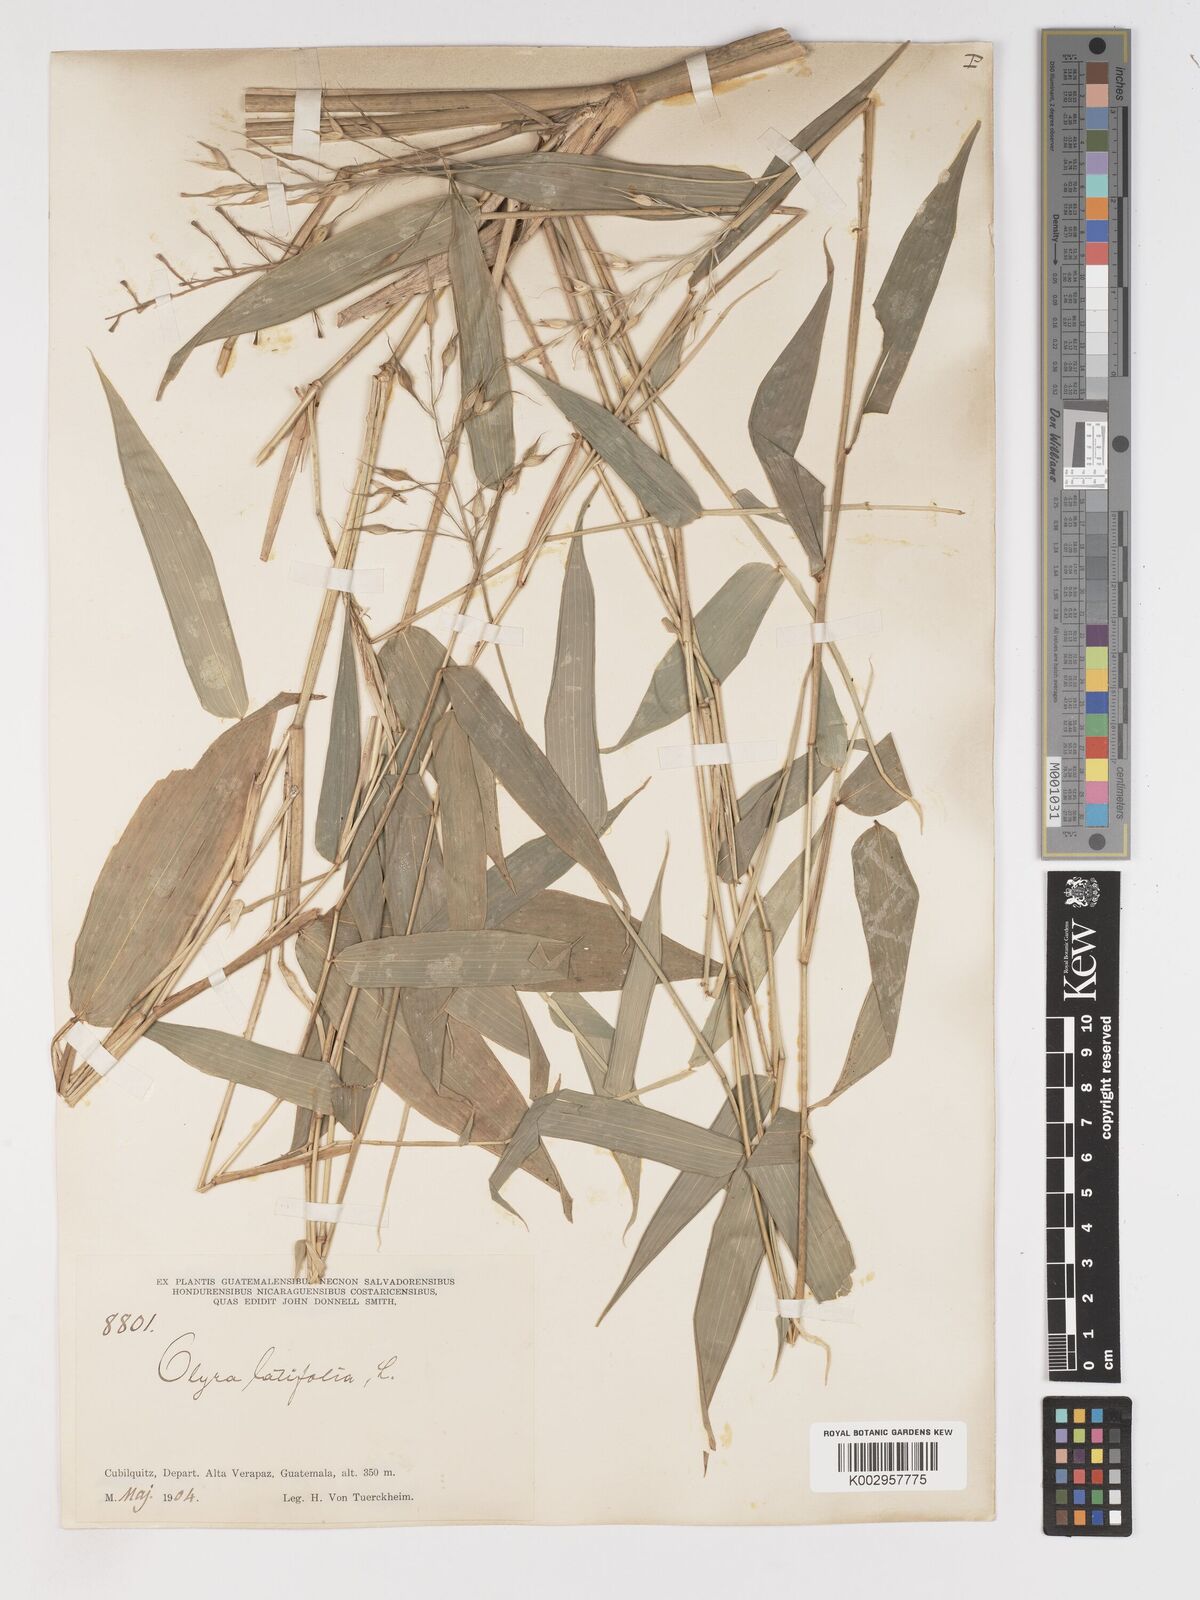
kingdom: Plantae
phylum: Tracheophyta
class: Liliopsida
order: Poales
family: Poaceae
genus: Olyra
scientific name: Olyra latifolia
